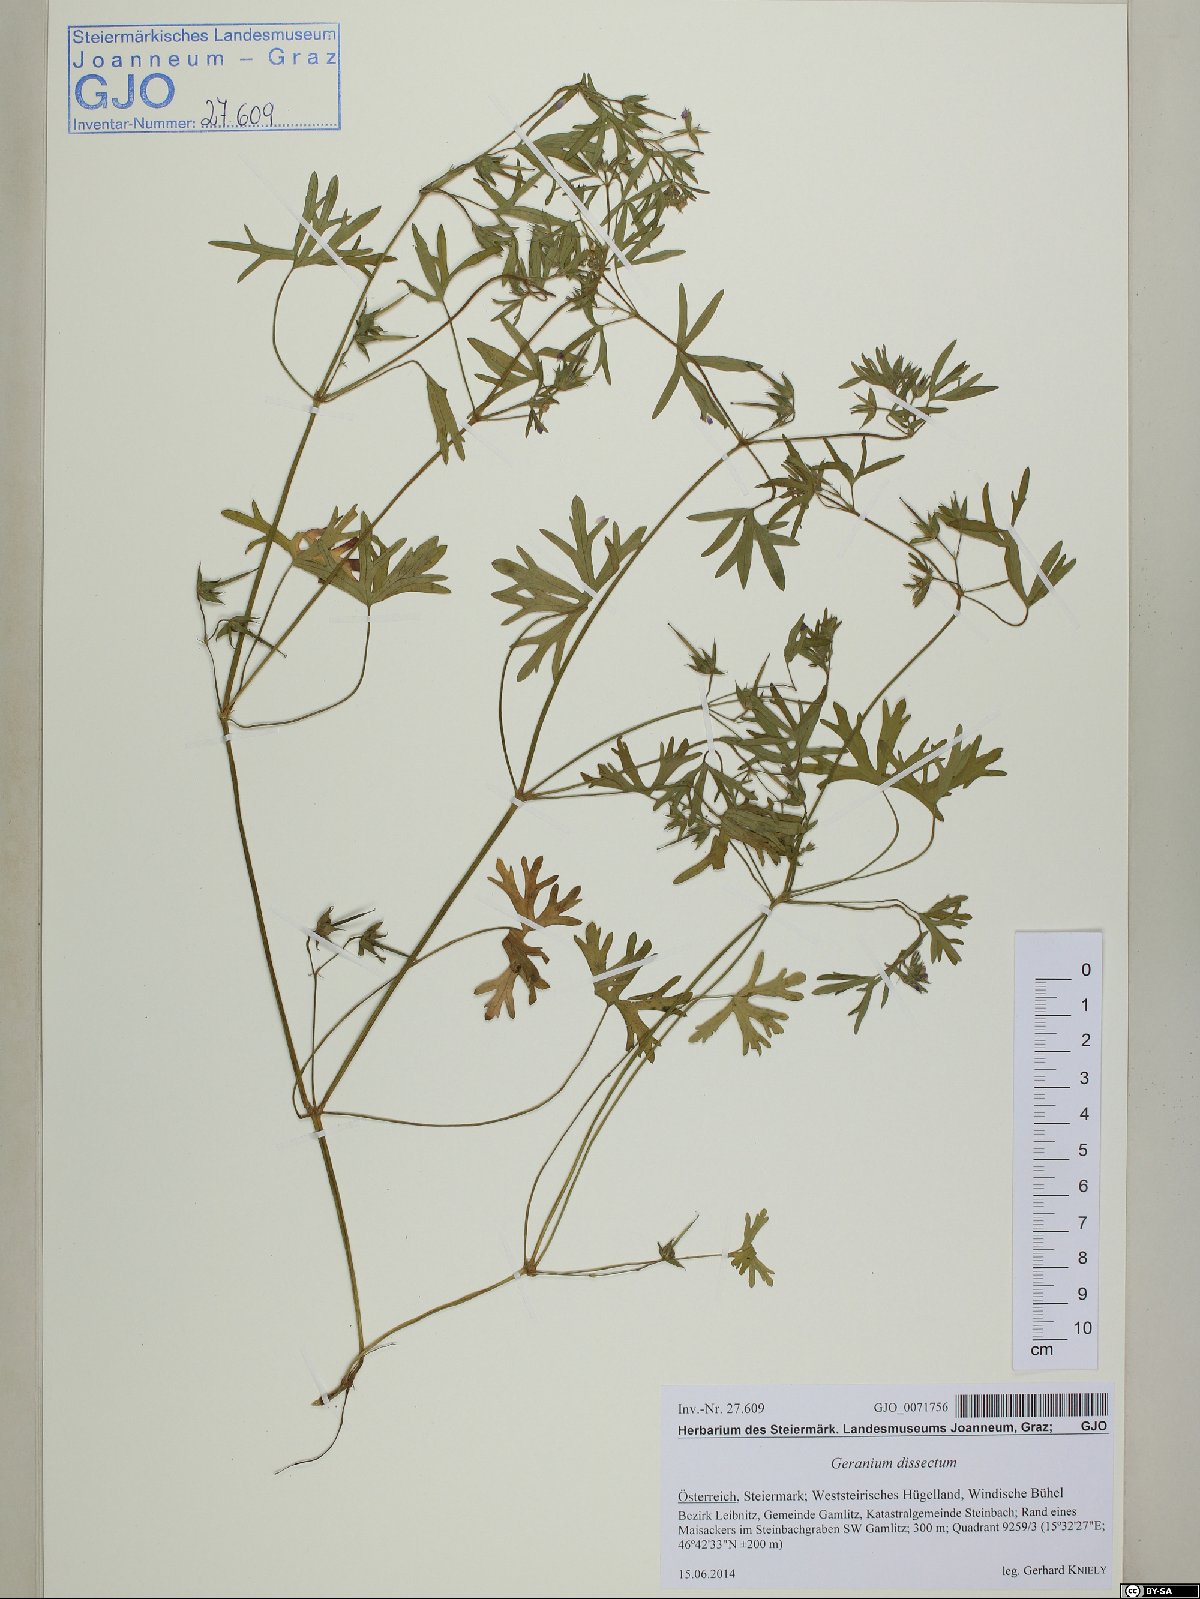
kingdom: Plantae
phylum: Tracheophyta
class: Magnoliopsida
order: Geraniales
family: Geraniaceae
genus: Geranium
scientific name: Geranium dissectum
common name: Cut-leaved crane's-bill
